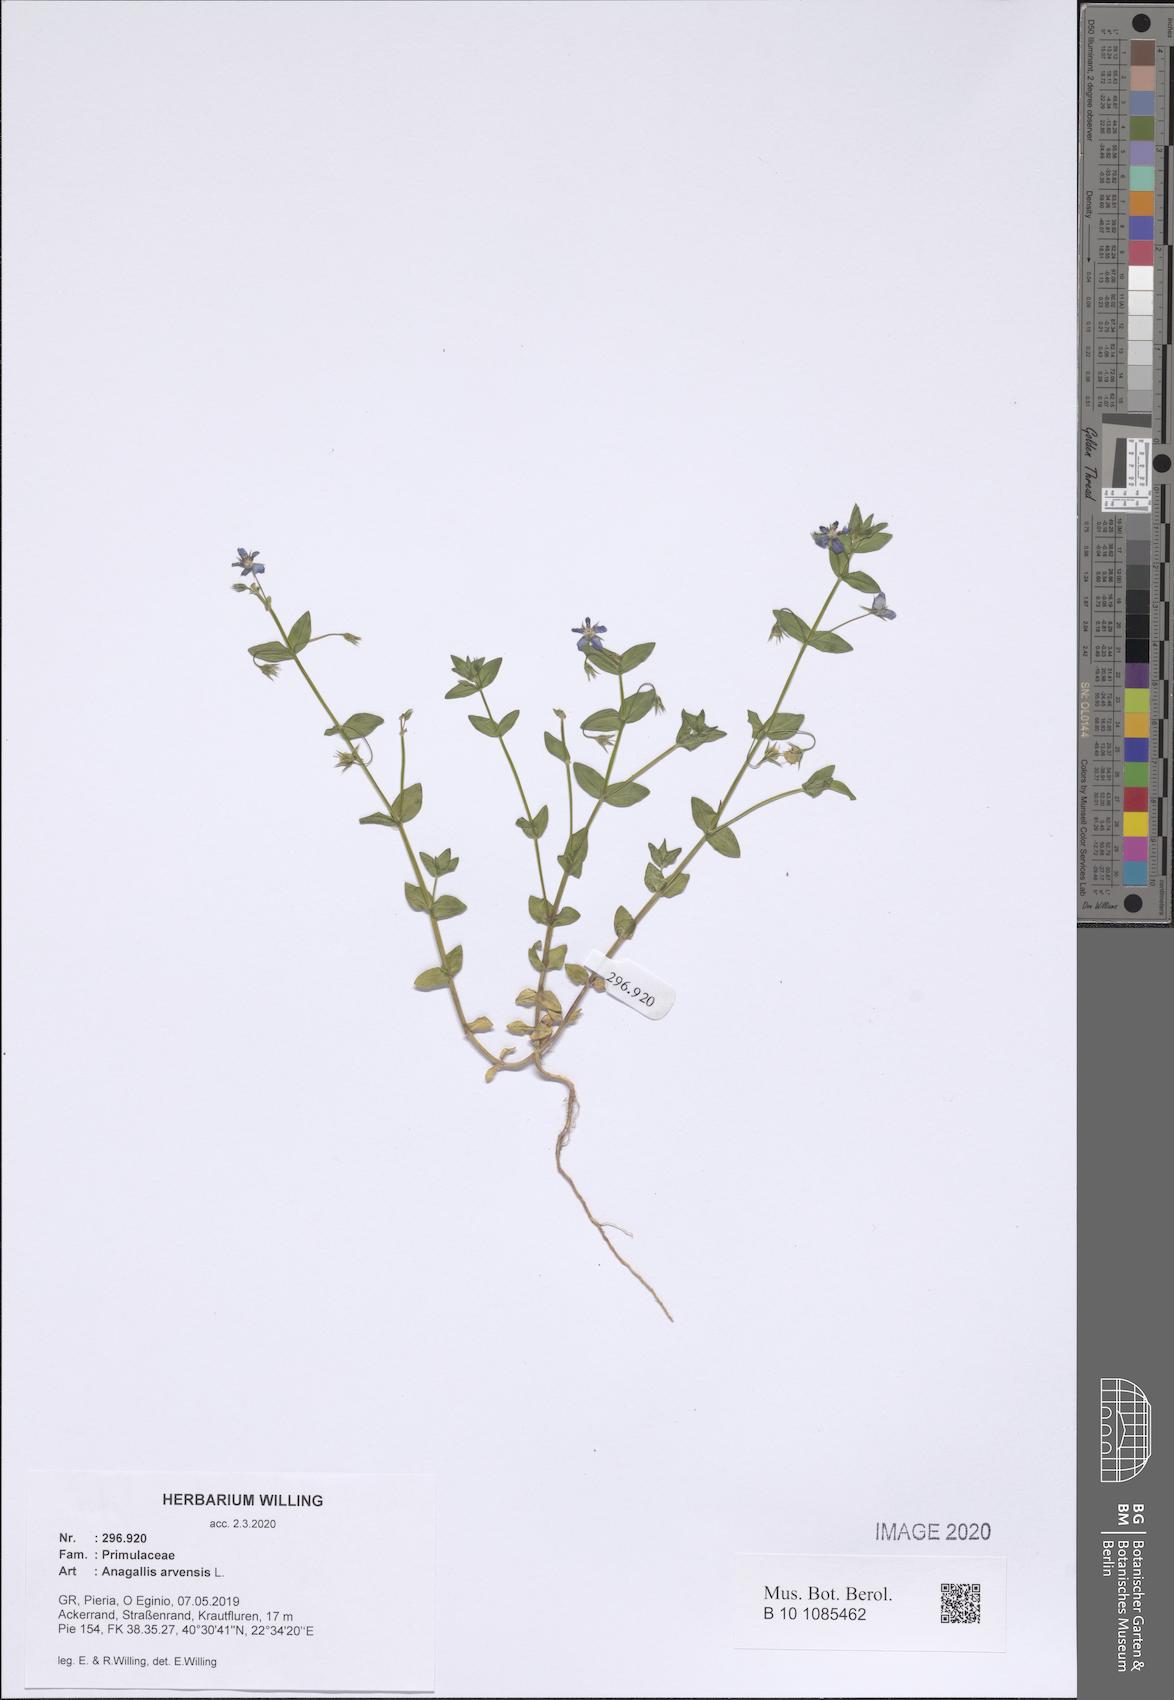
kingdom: Plantae
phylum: Tracheophyta
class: Magnoliopsida
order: Ericales
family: Primulaceae
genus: Lysimachia
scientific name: Lysimachia arvensis
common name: Scarlet pimpernel
